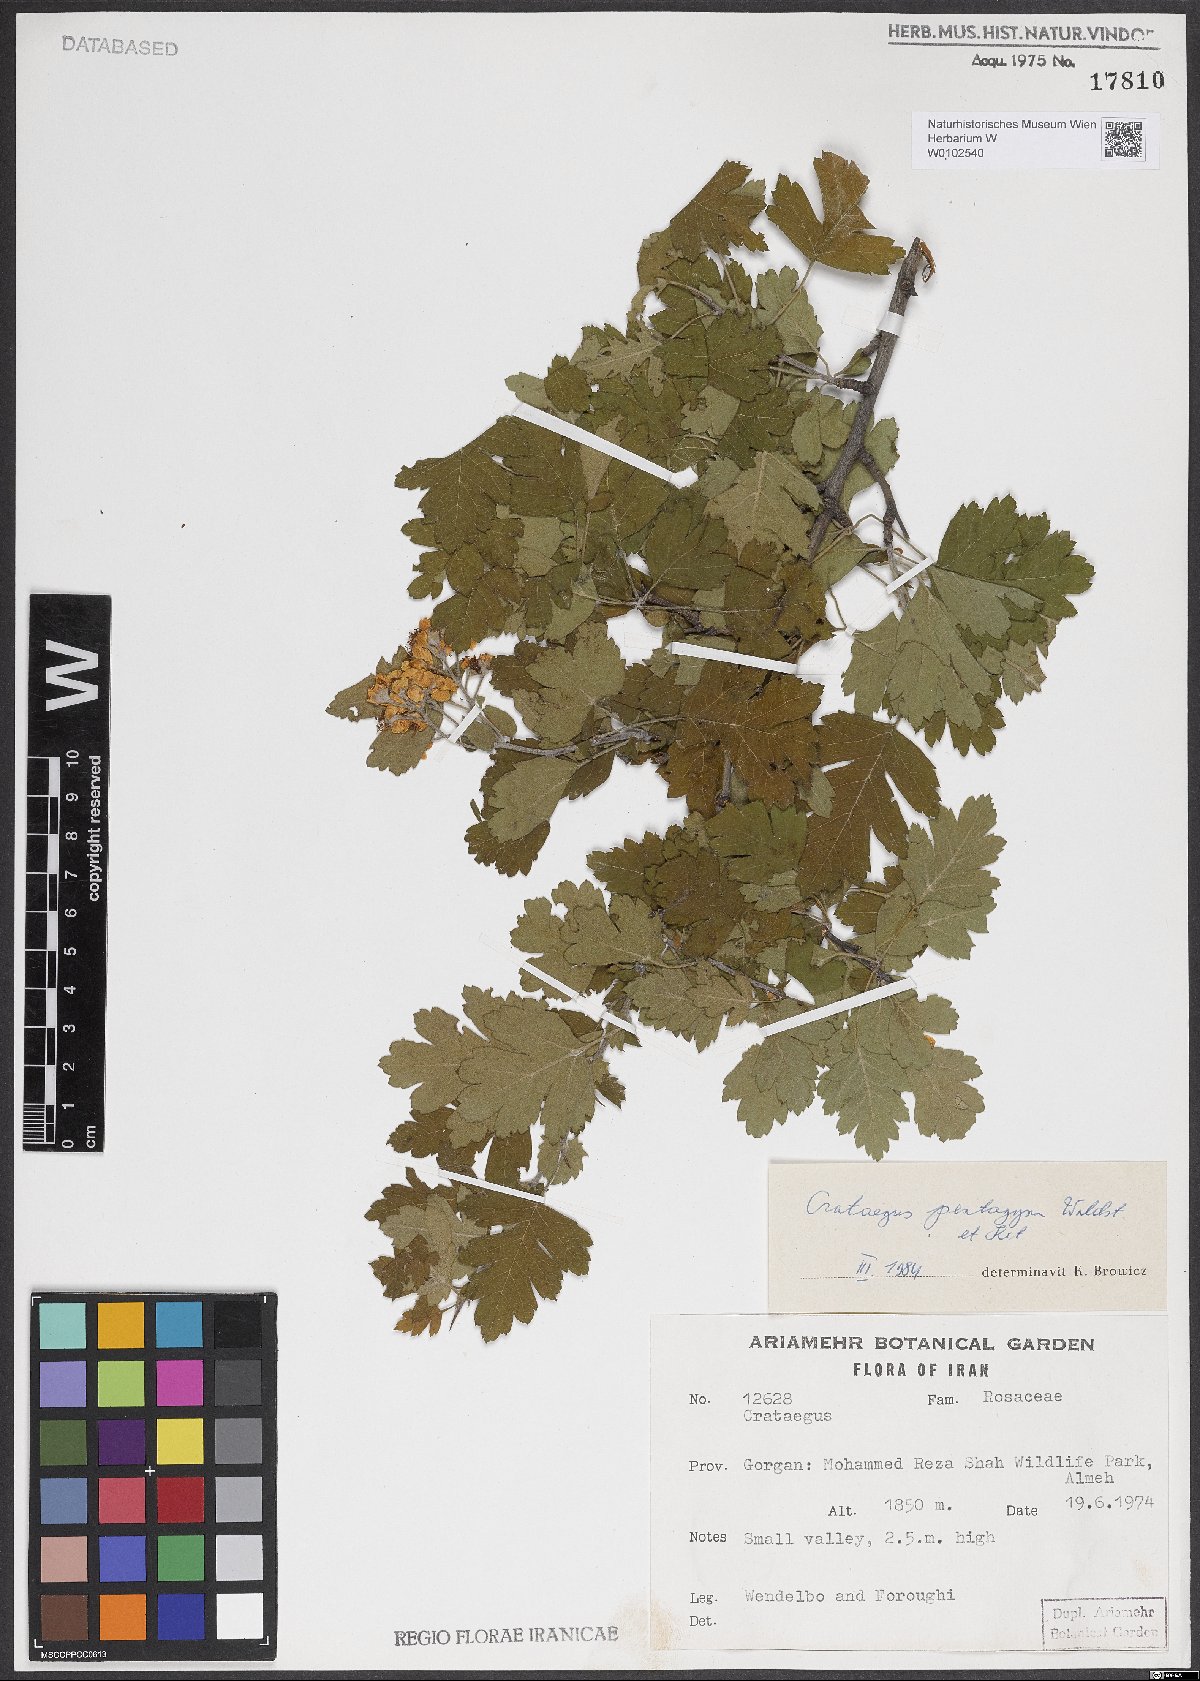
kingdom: Plantae
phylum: Tracheophyta
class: Magnoliopsida
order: Rosales
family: Rosaceae
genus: Crataegus
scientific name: Crataegus pentagyna
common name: Small-flowered black hawthorn
